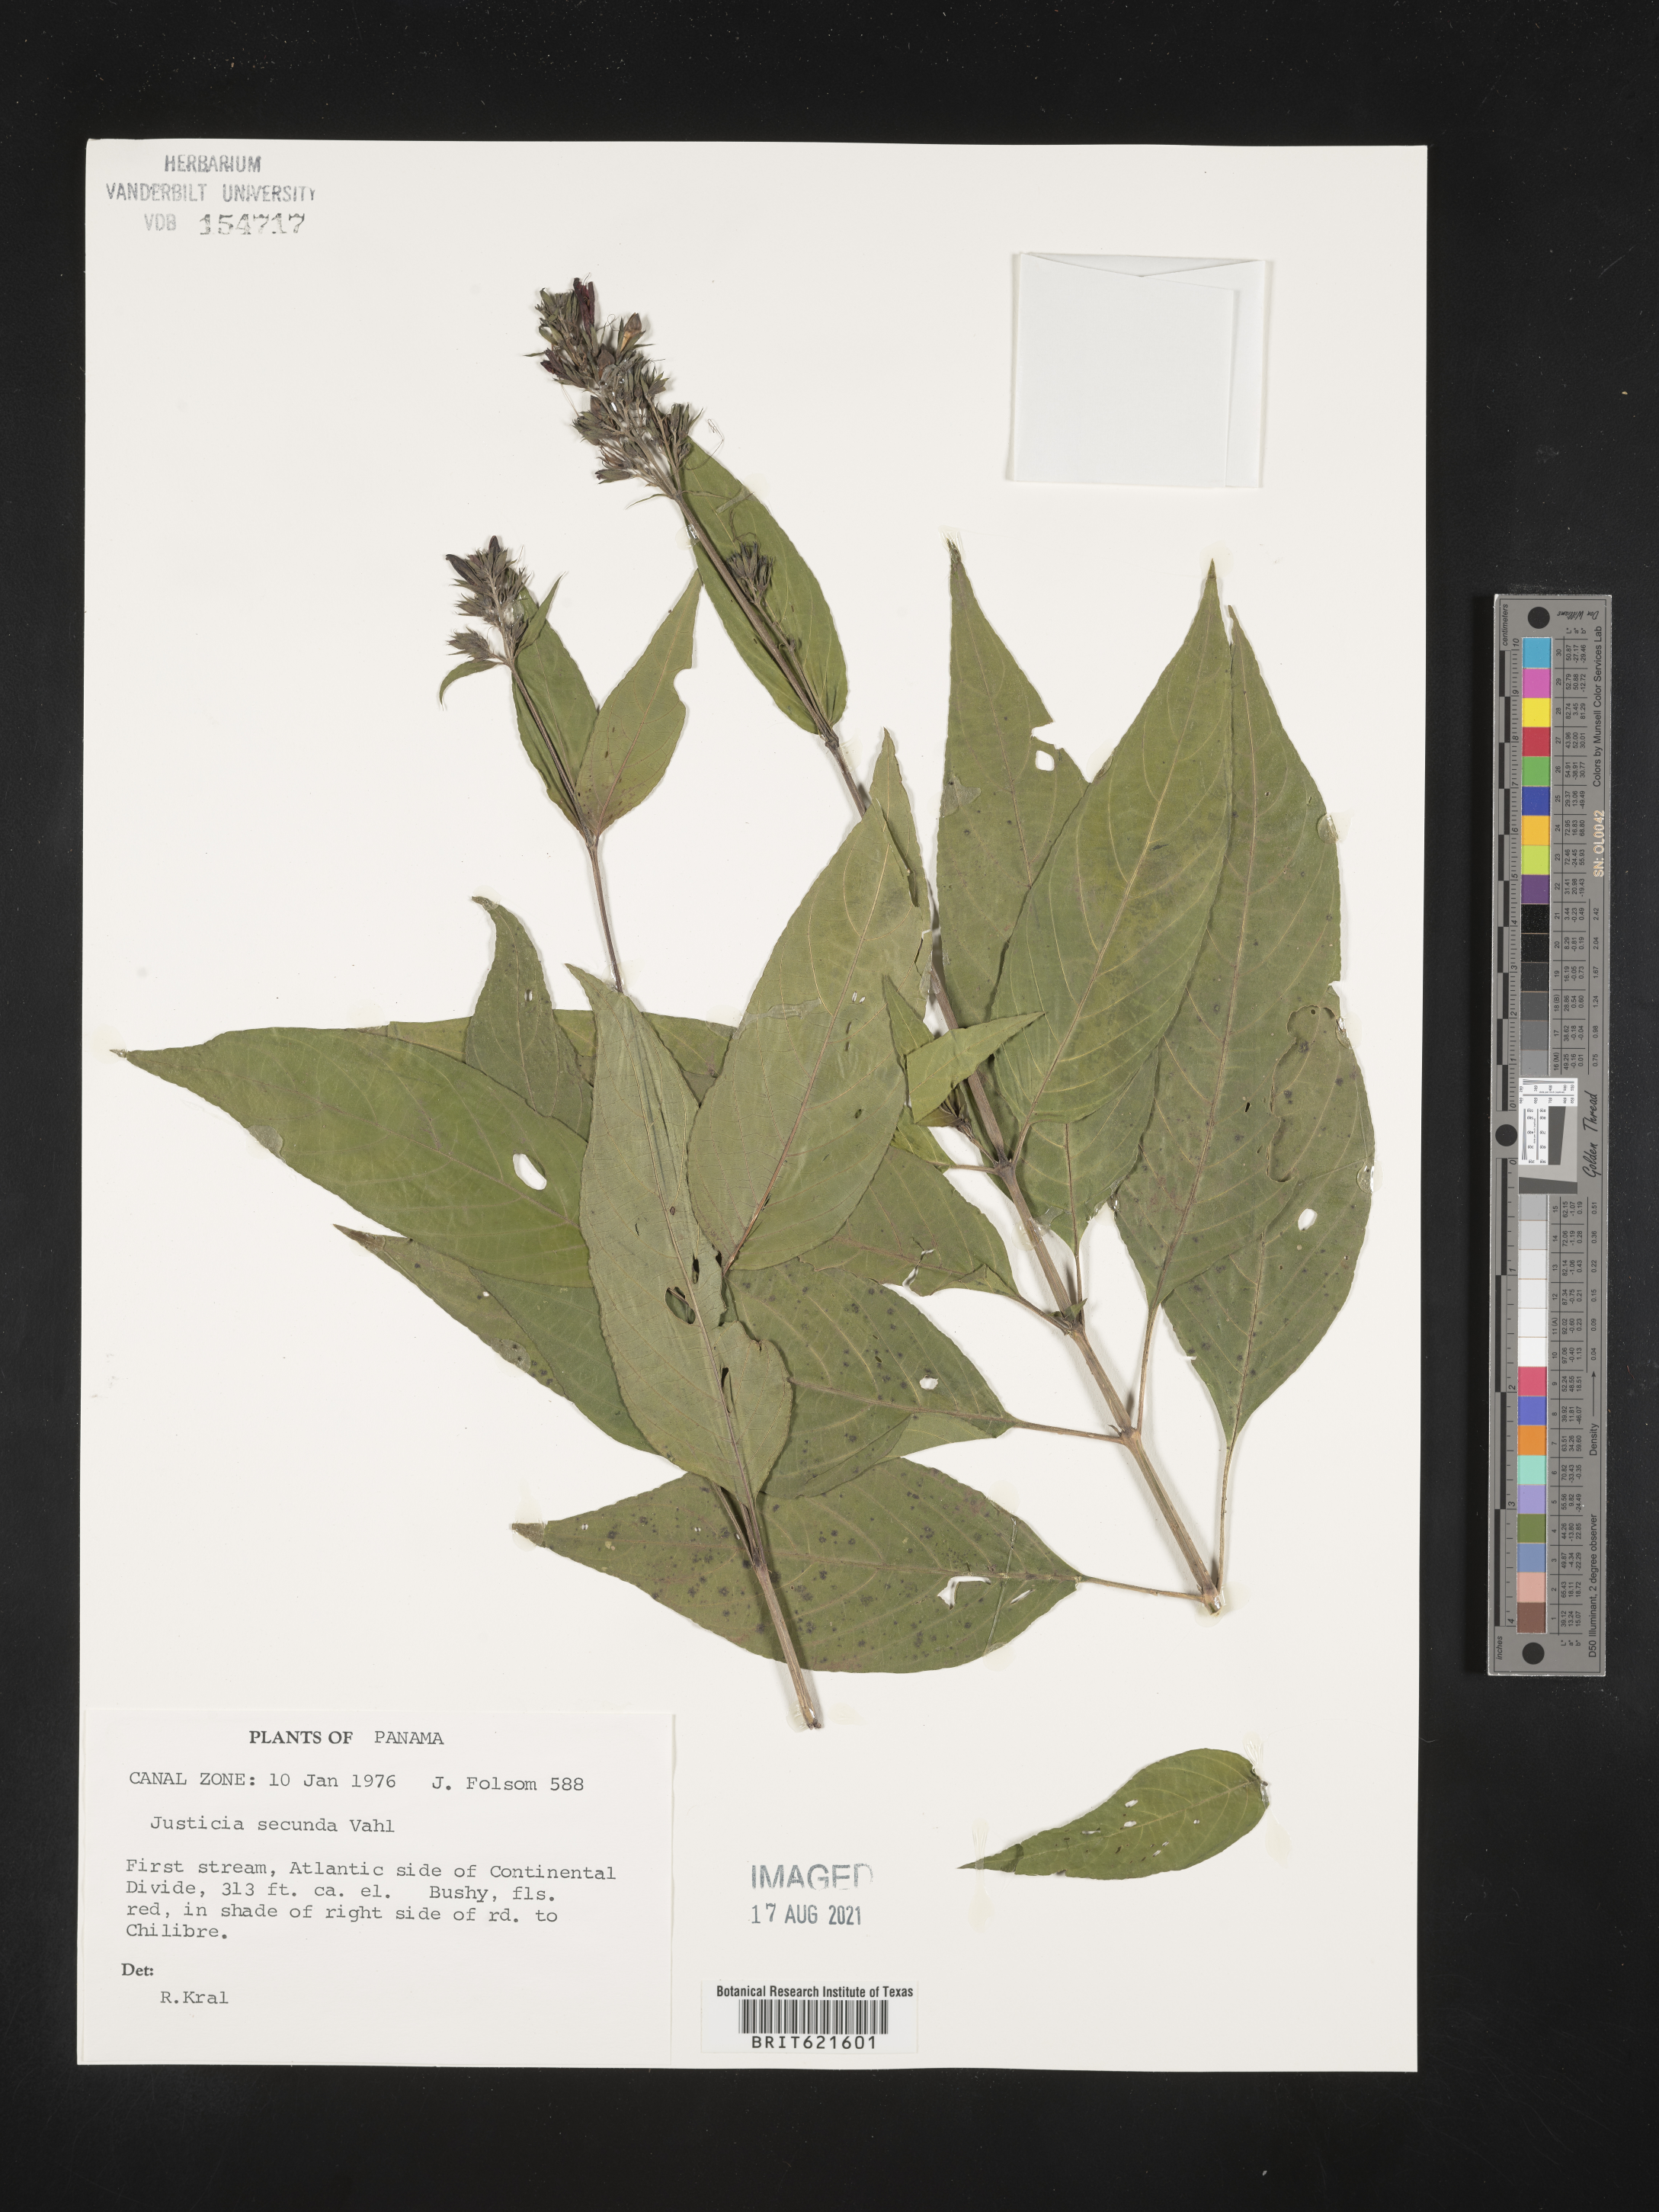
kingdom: Plantae
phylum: Tracheophyta
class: Magnoliopsida
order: Lamiales
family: Acanthaceae
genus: Justicia
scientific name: Justicia secunda
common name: Blood root
